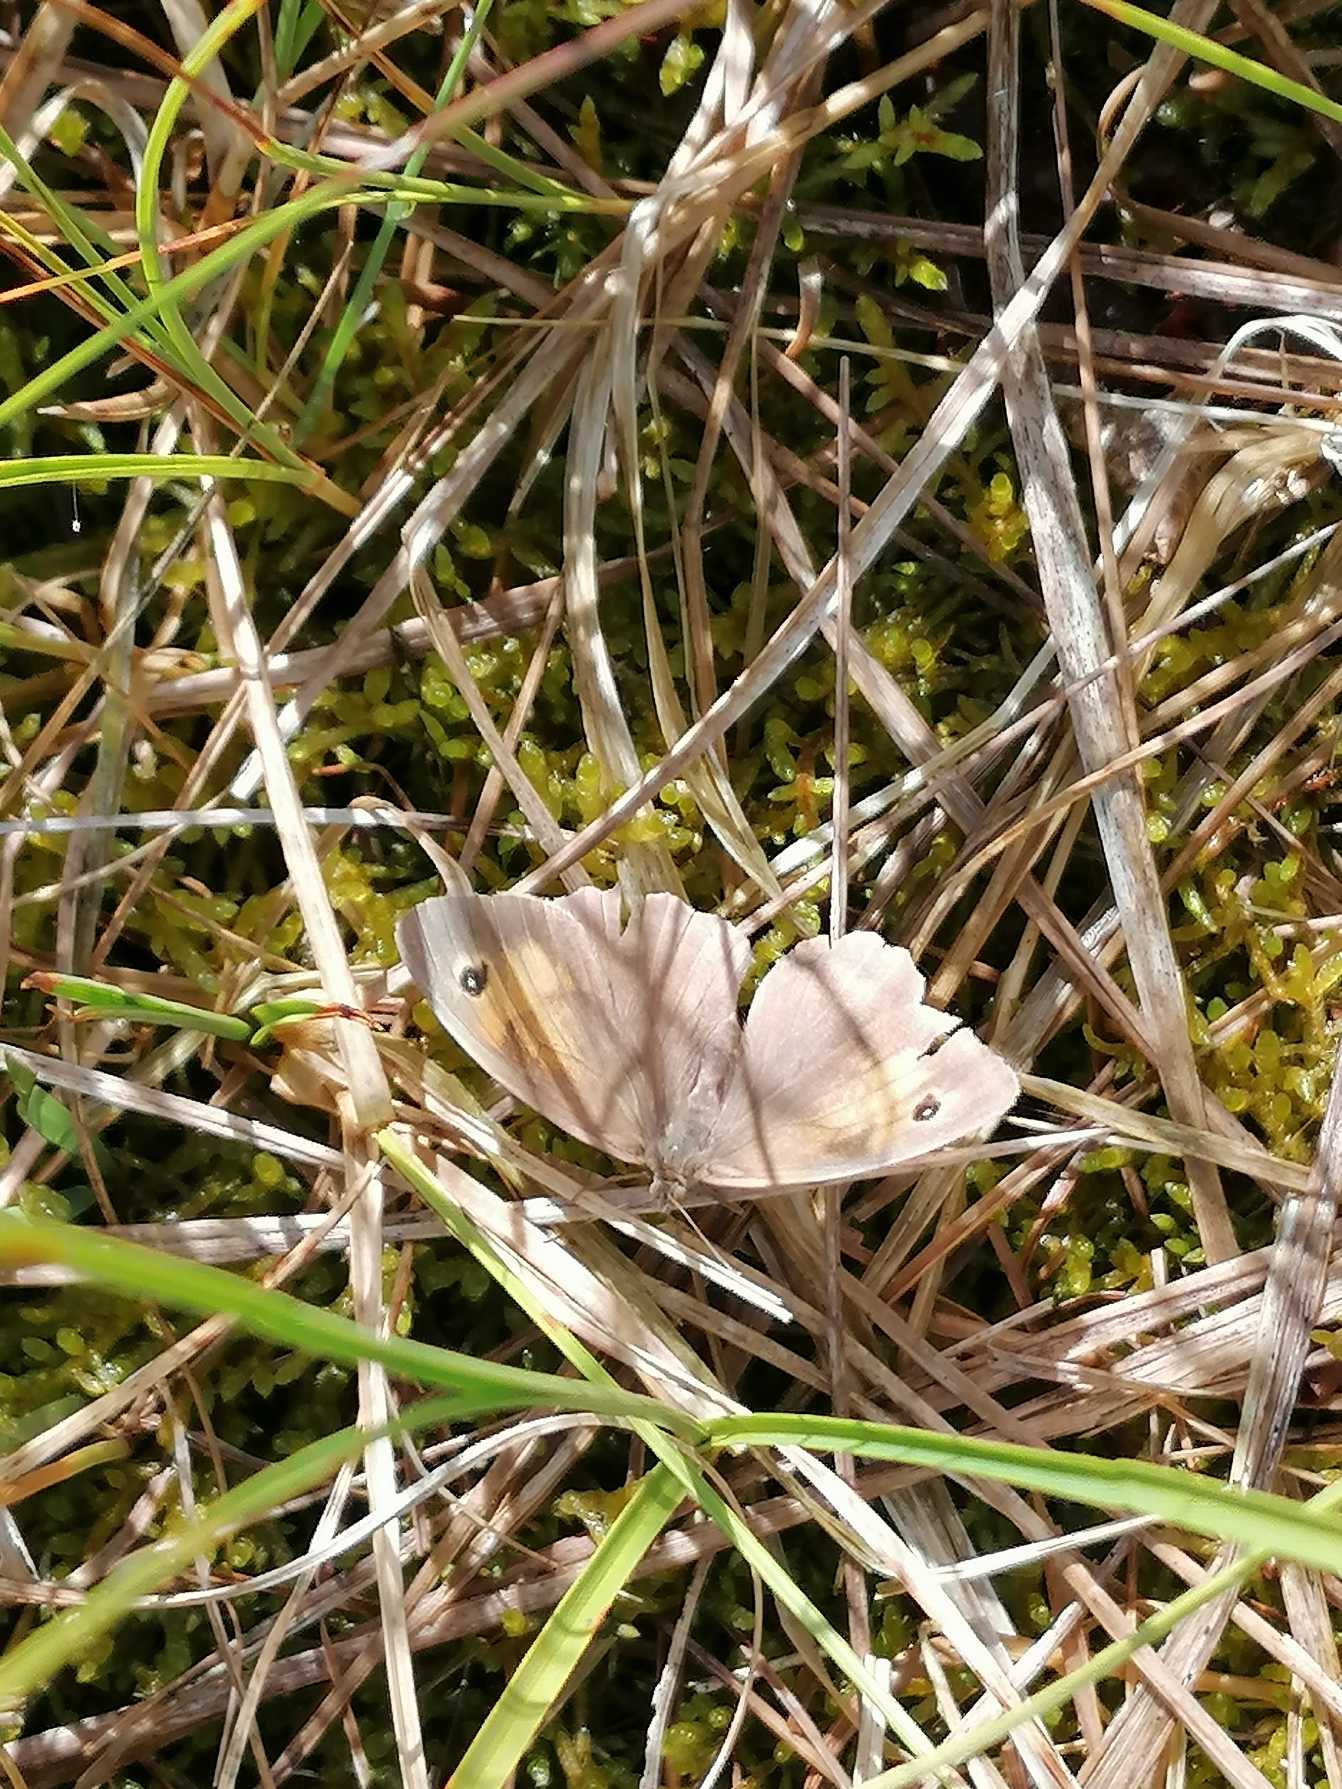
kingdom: Animalia
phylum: Arthropoda
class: Insecta
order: Lepidoptera
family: Nymphalidae
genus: Maniola
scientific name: Maniola jurtina
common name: Græsrandøje
